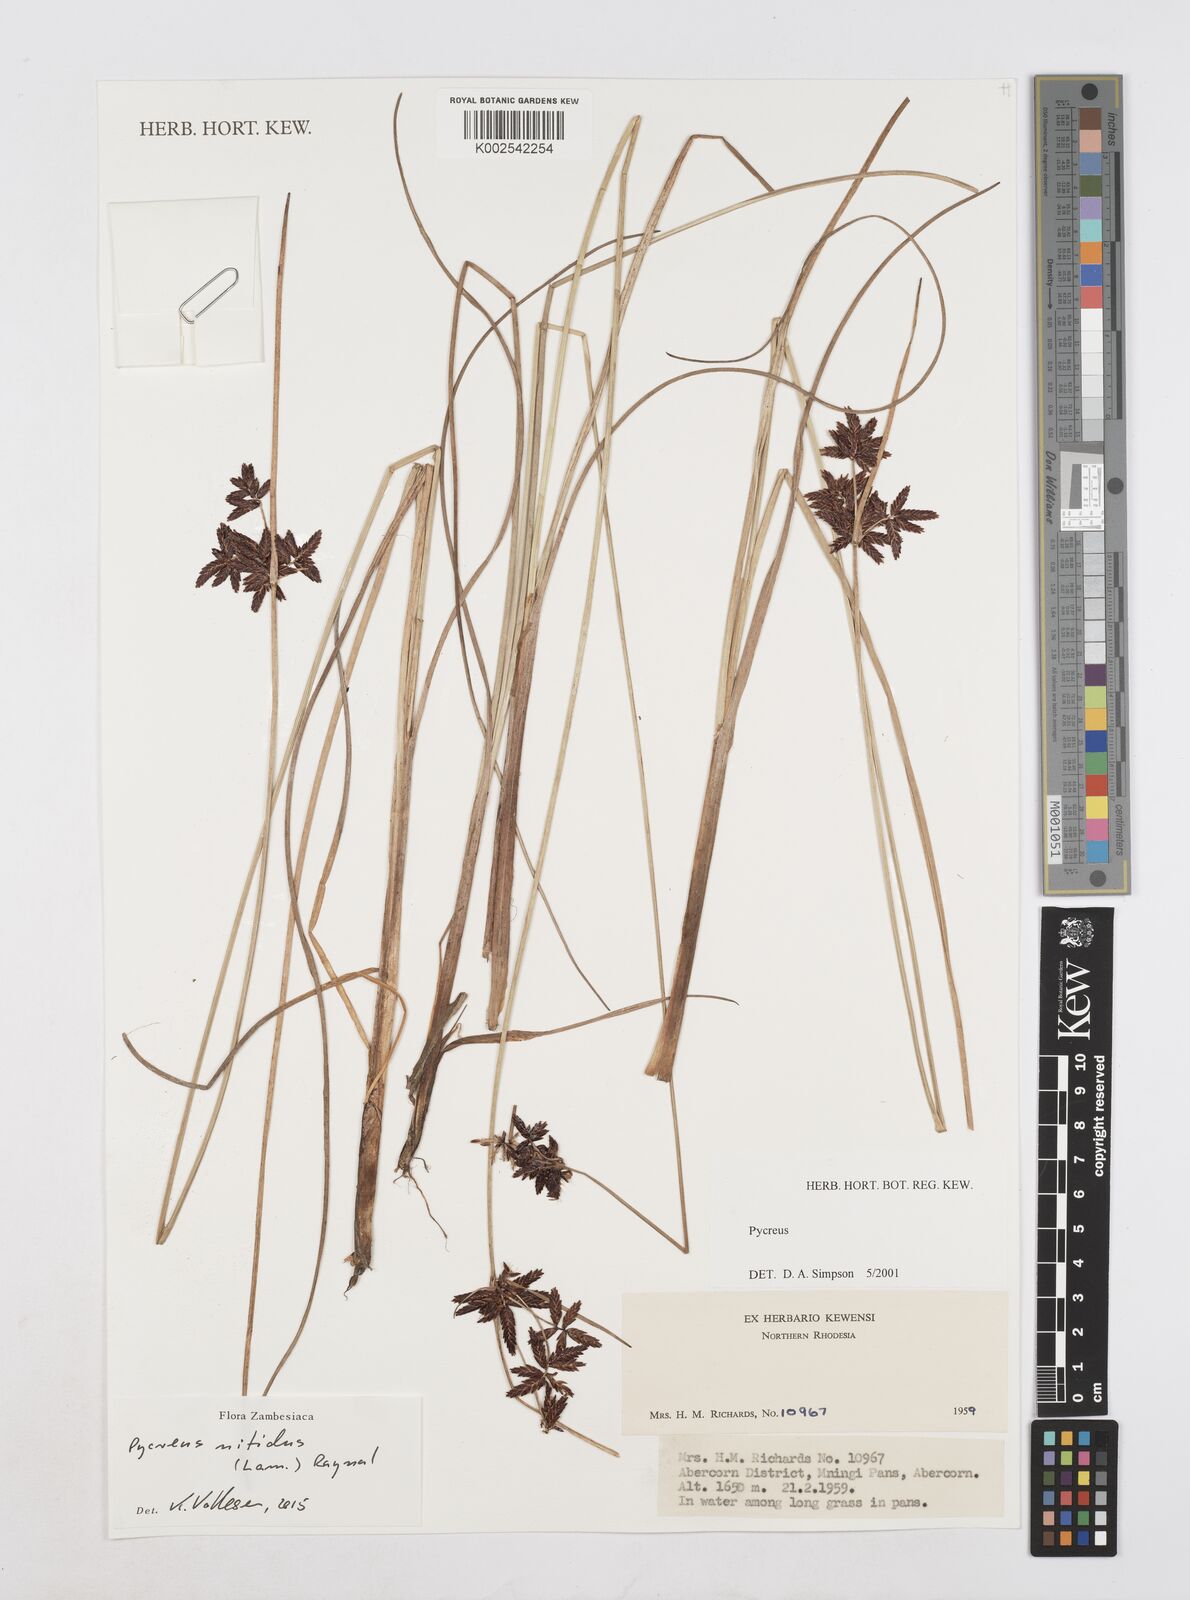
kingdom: Plantae
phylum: Tracheophyta
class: Liliopsida
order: Poales
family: Cyperaceae
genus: Cyperus
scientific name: Cyperus nitidus
